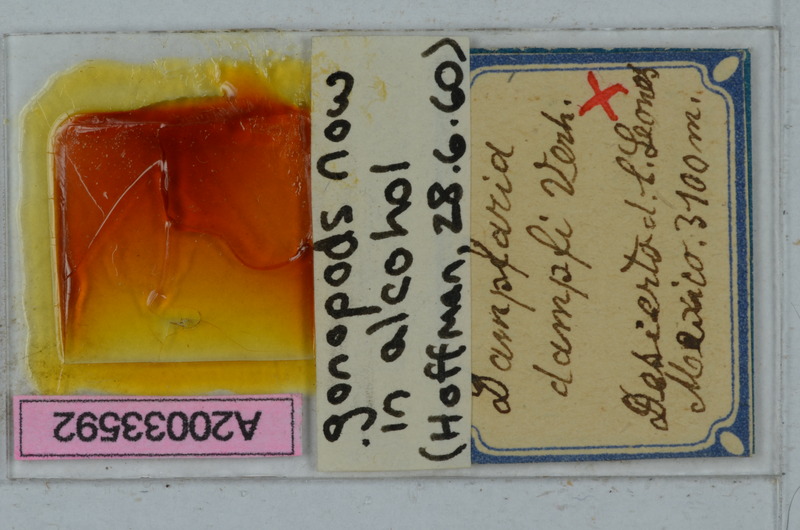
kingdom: Animalia
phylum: Arthropoda
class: Diplopoda
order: Polydesmida
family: Xystodesmidae
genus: Rhysodesmus
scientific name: Rhysodesmus dampfi
